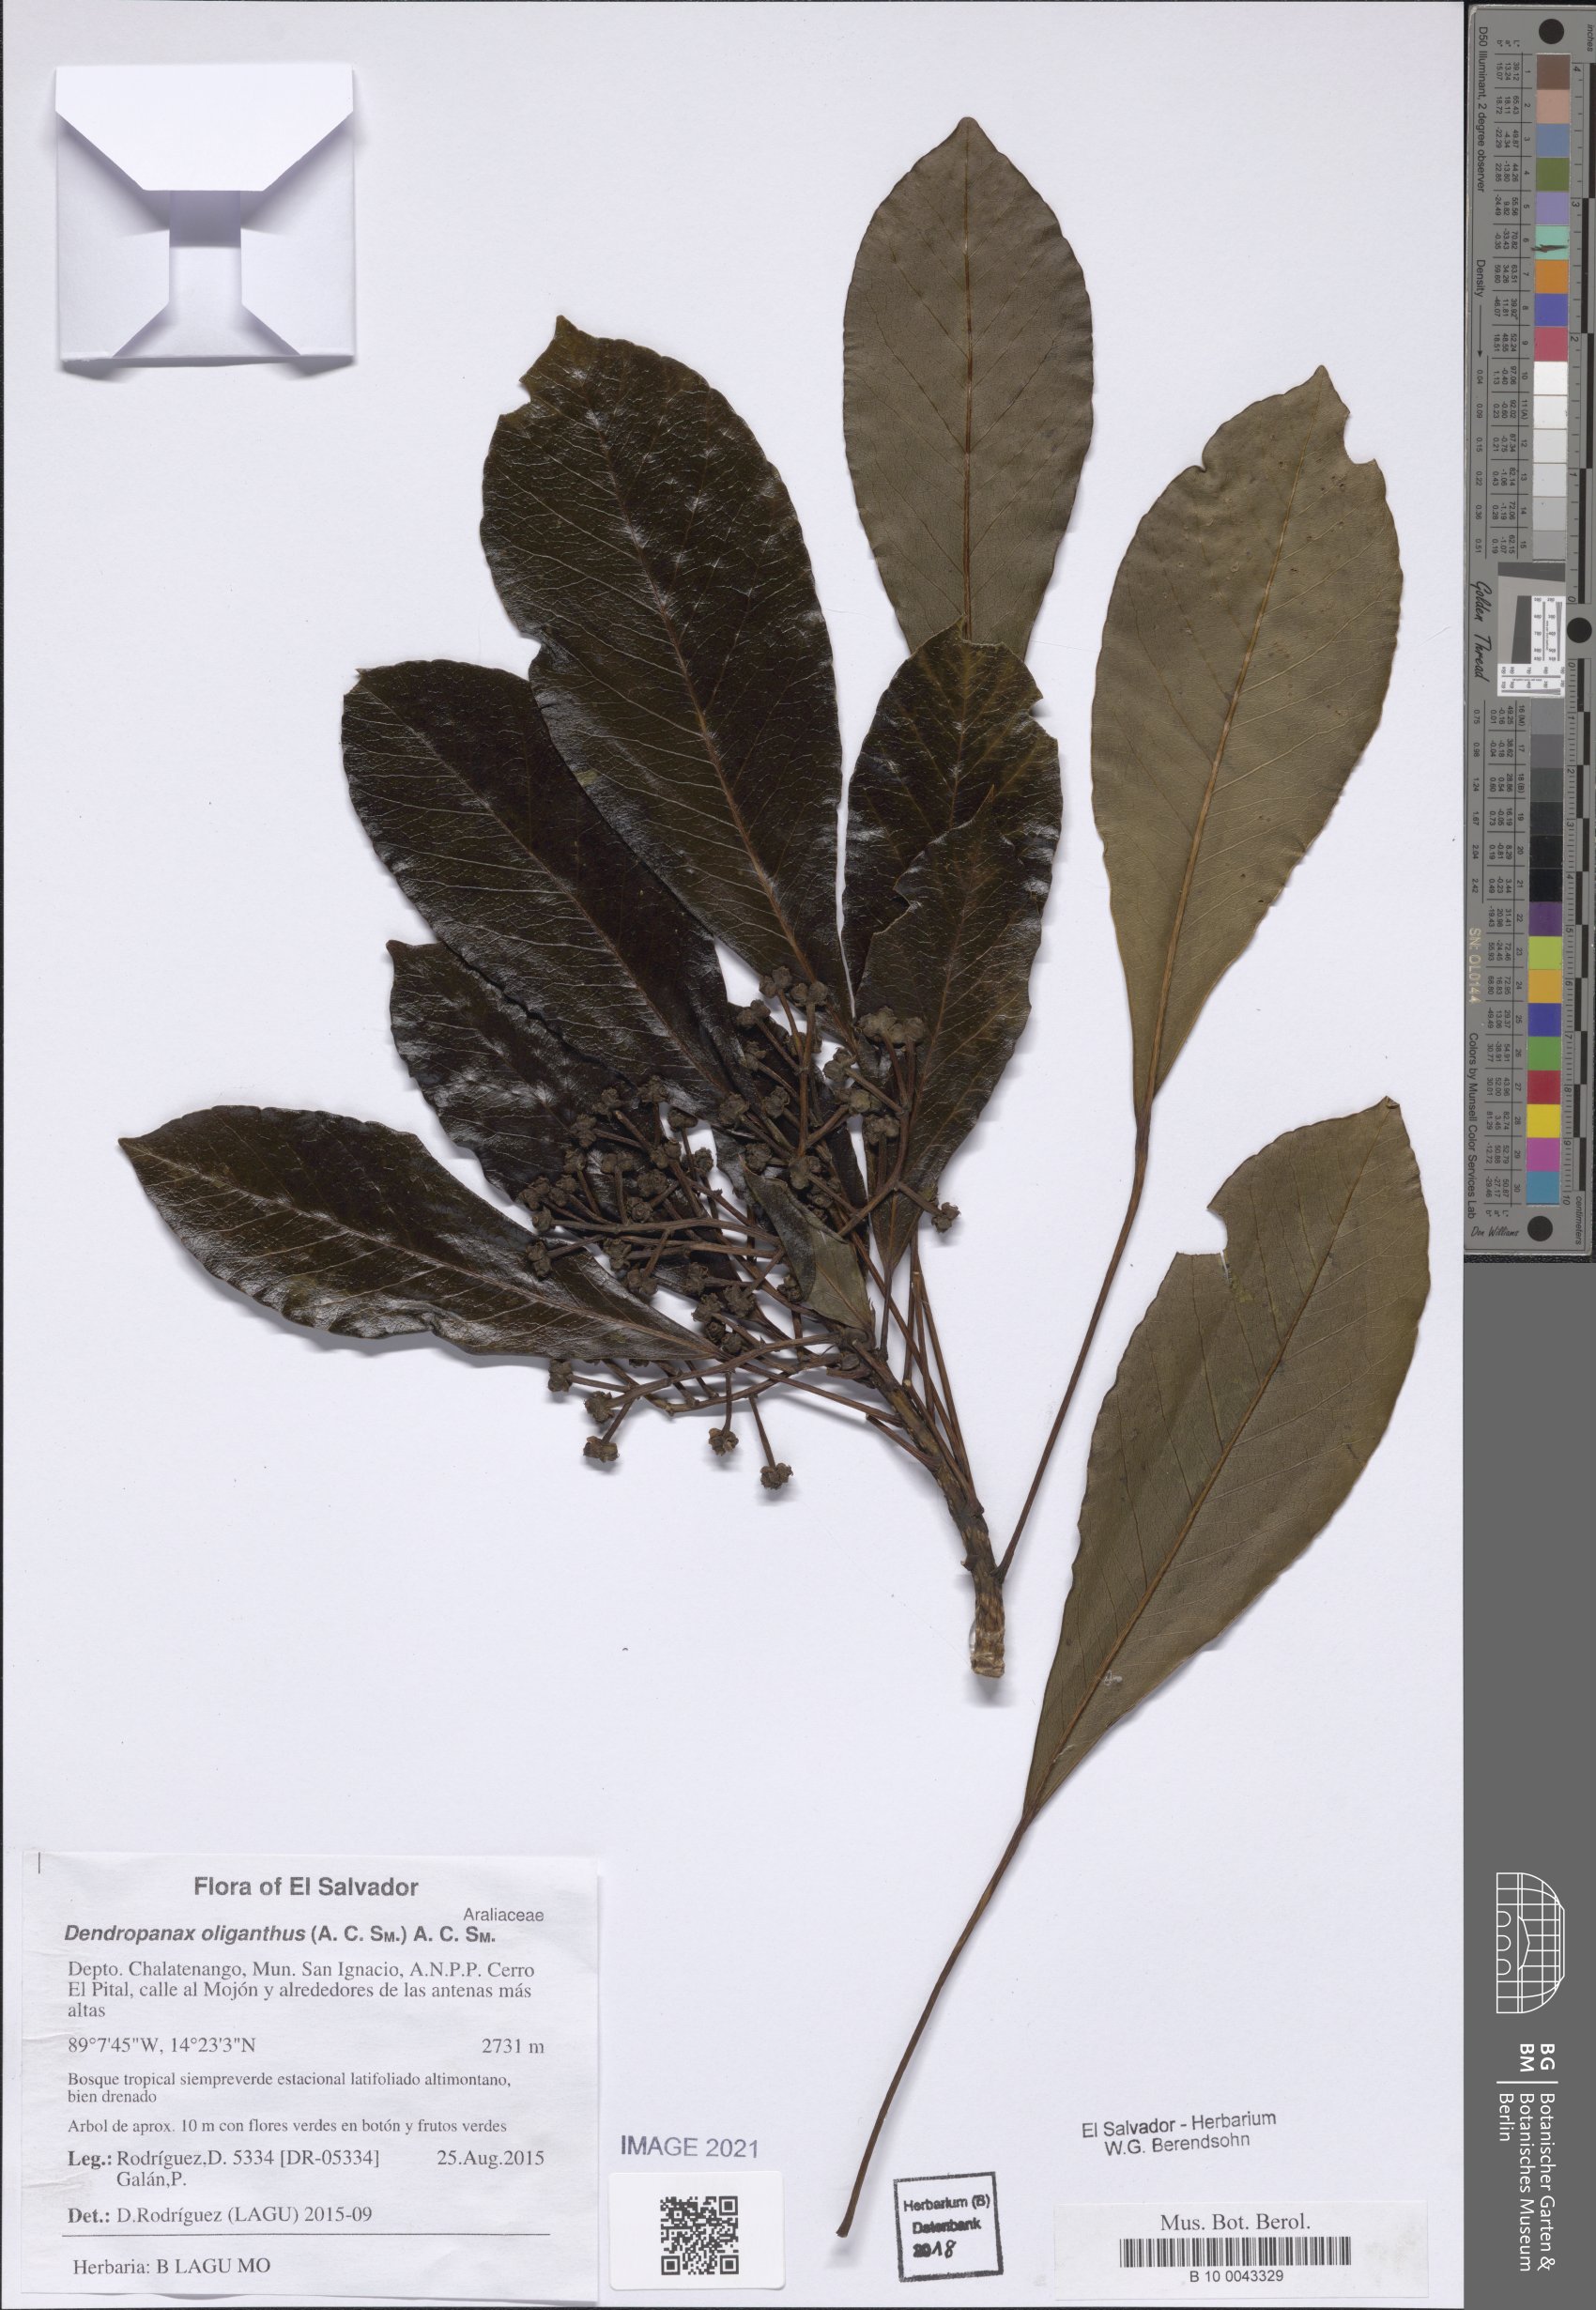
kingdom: Plantae
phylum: Tracheophyta
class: Magnoliopsida
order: Apiales
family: Araliaceae
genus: Dendropanax
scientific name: Dendropanax oliganthus
